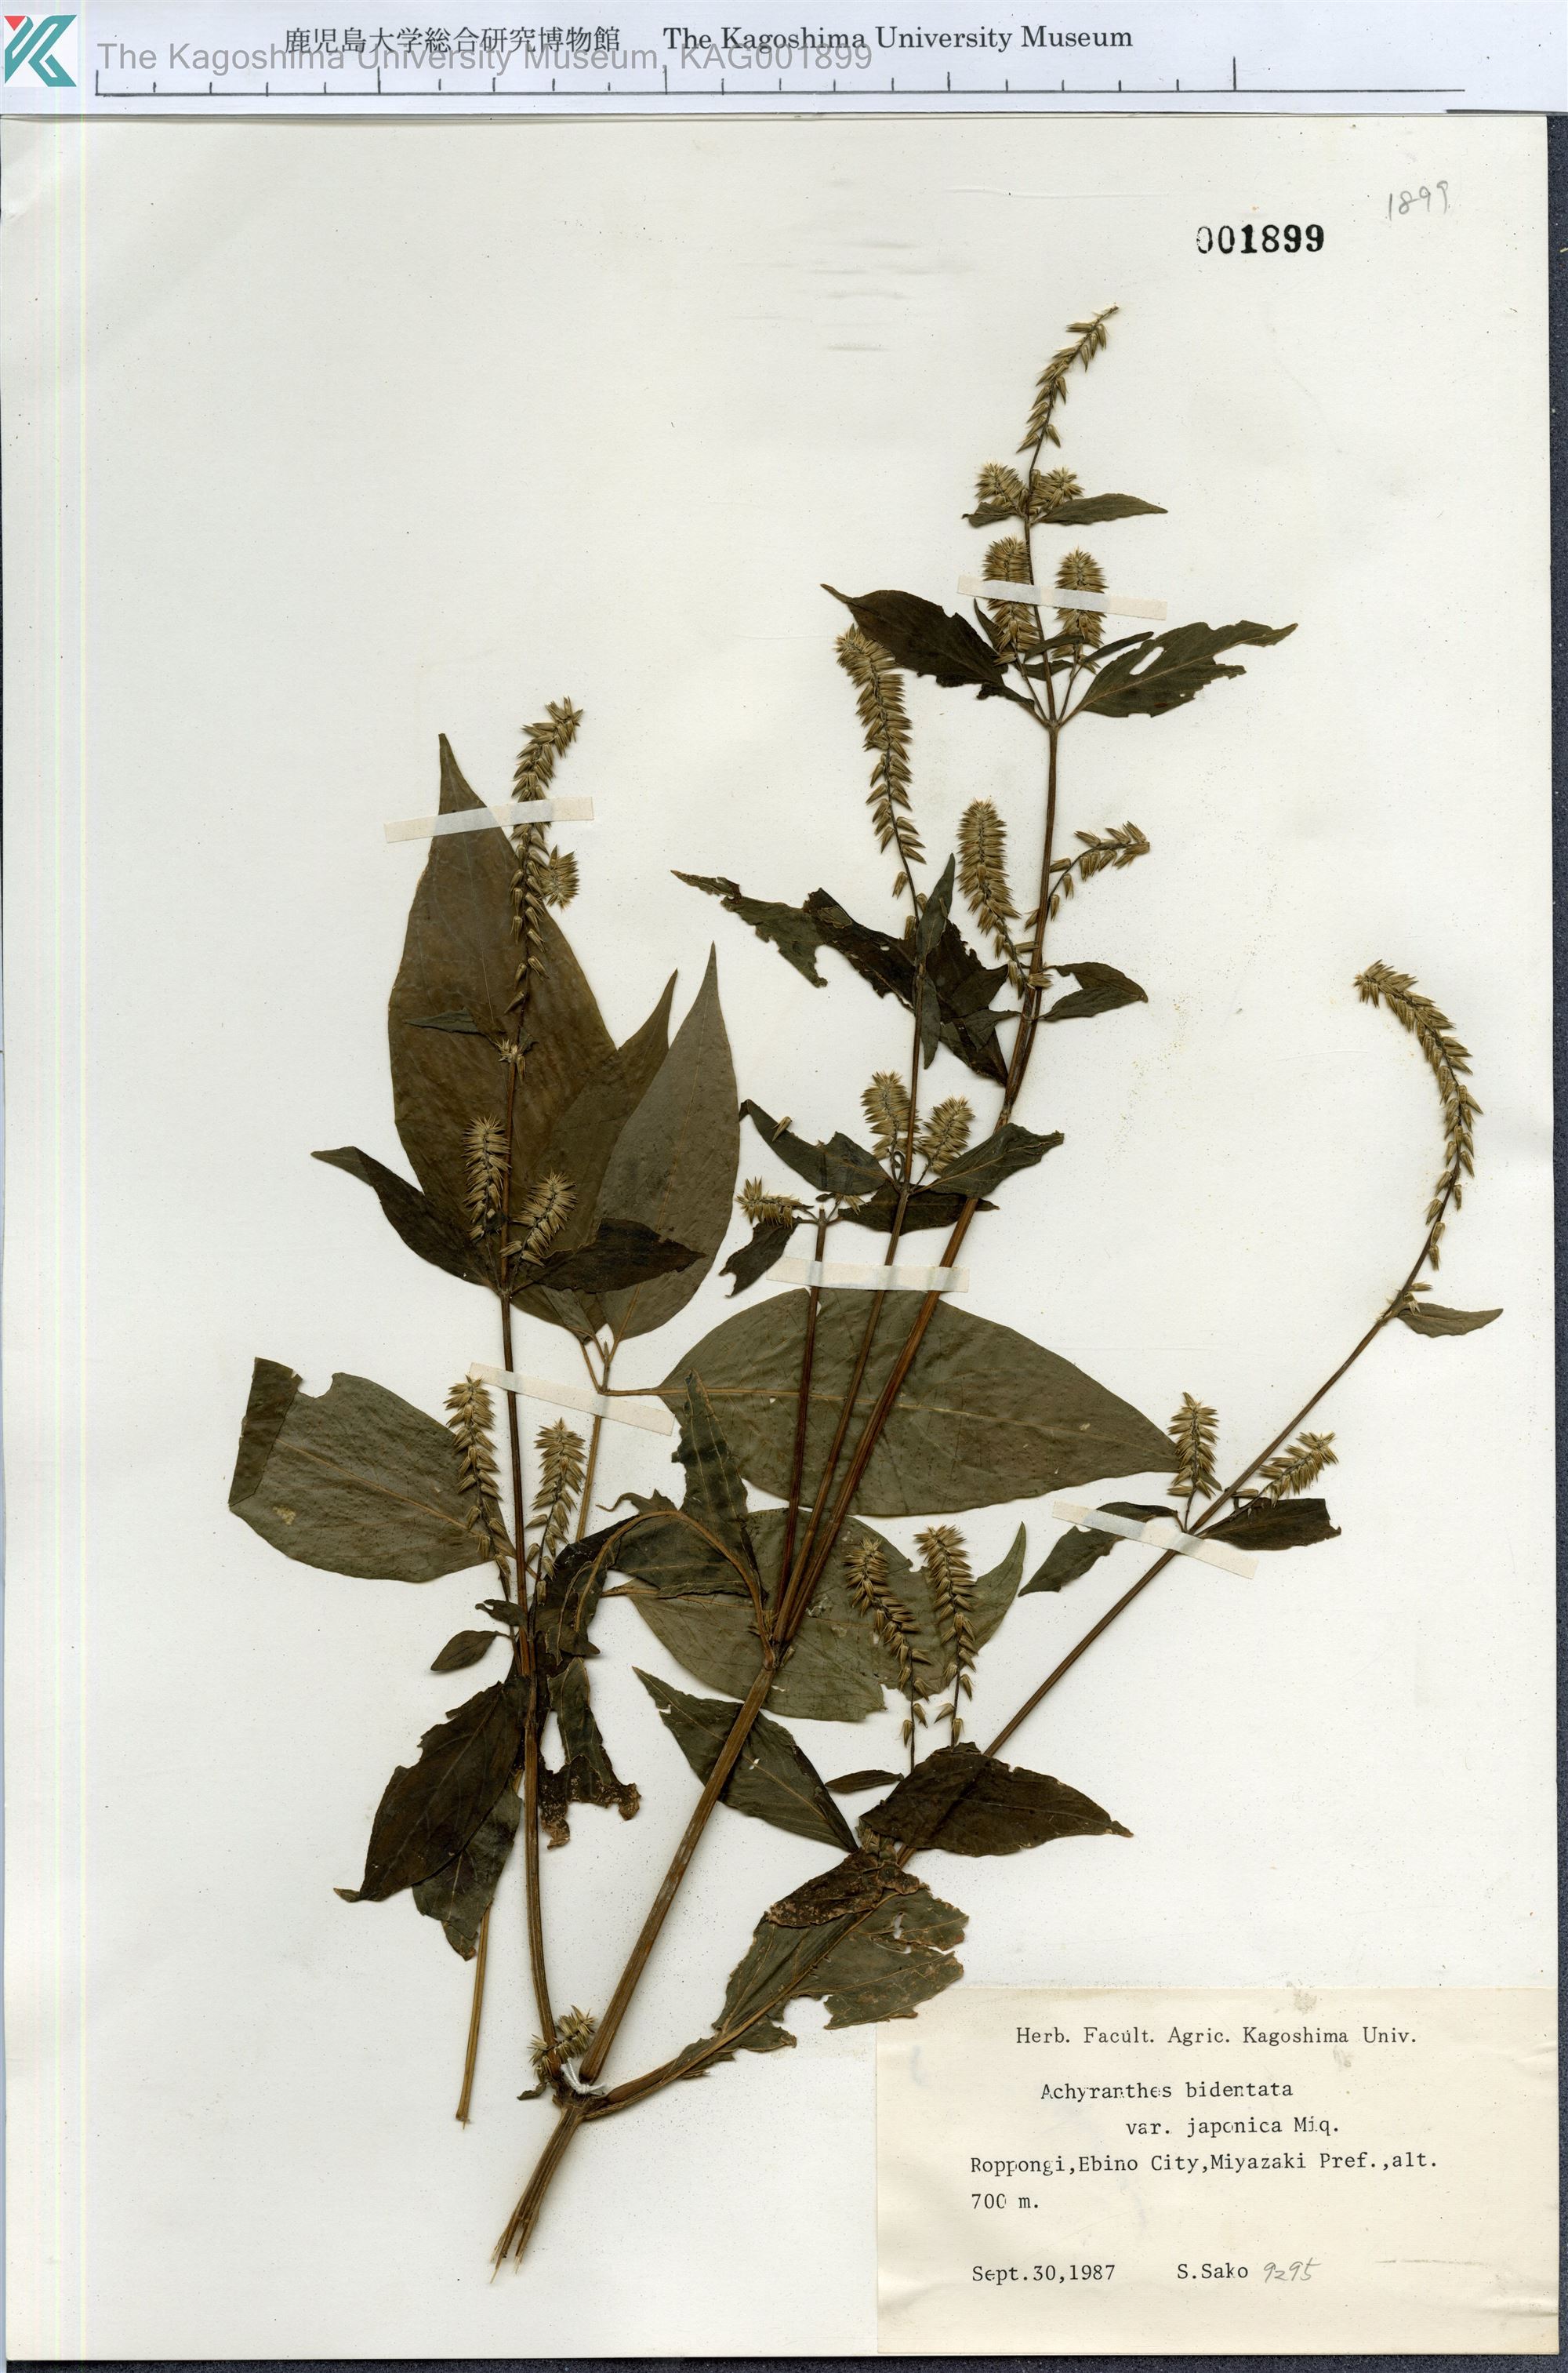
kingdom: Plantae
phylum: Tracheophyta
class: Magnoliopsida
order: Caryophyllales
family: Amaranthaceae
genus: Achyranthes
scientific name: Achyranthes bidentata
